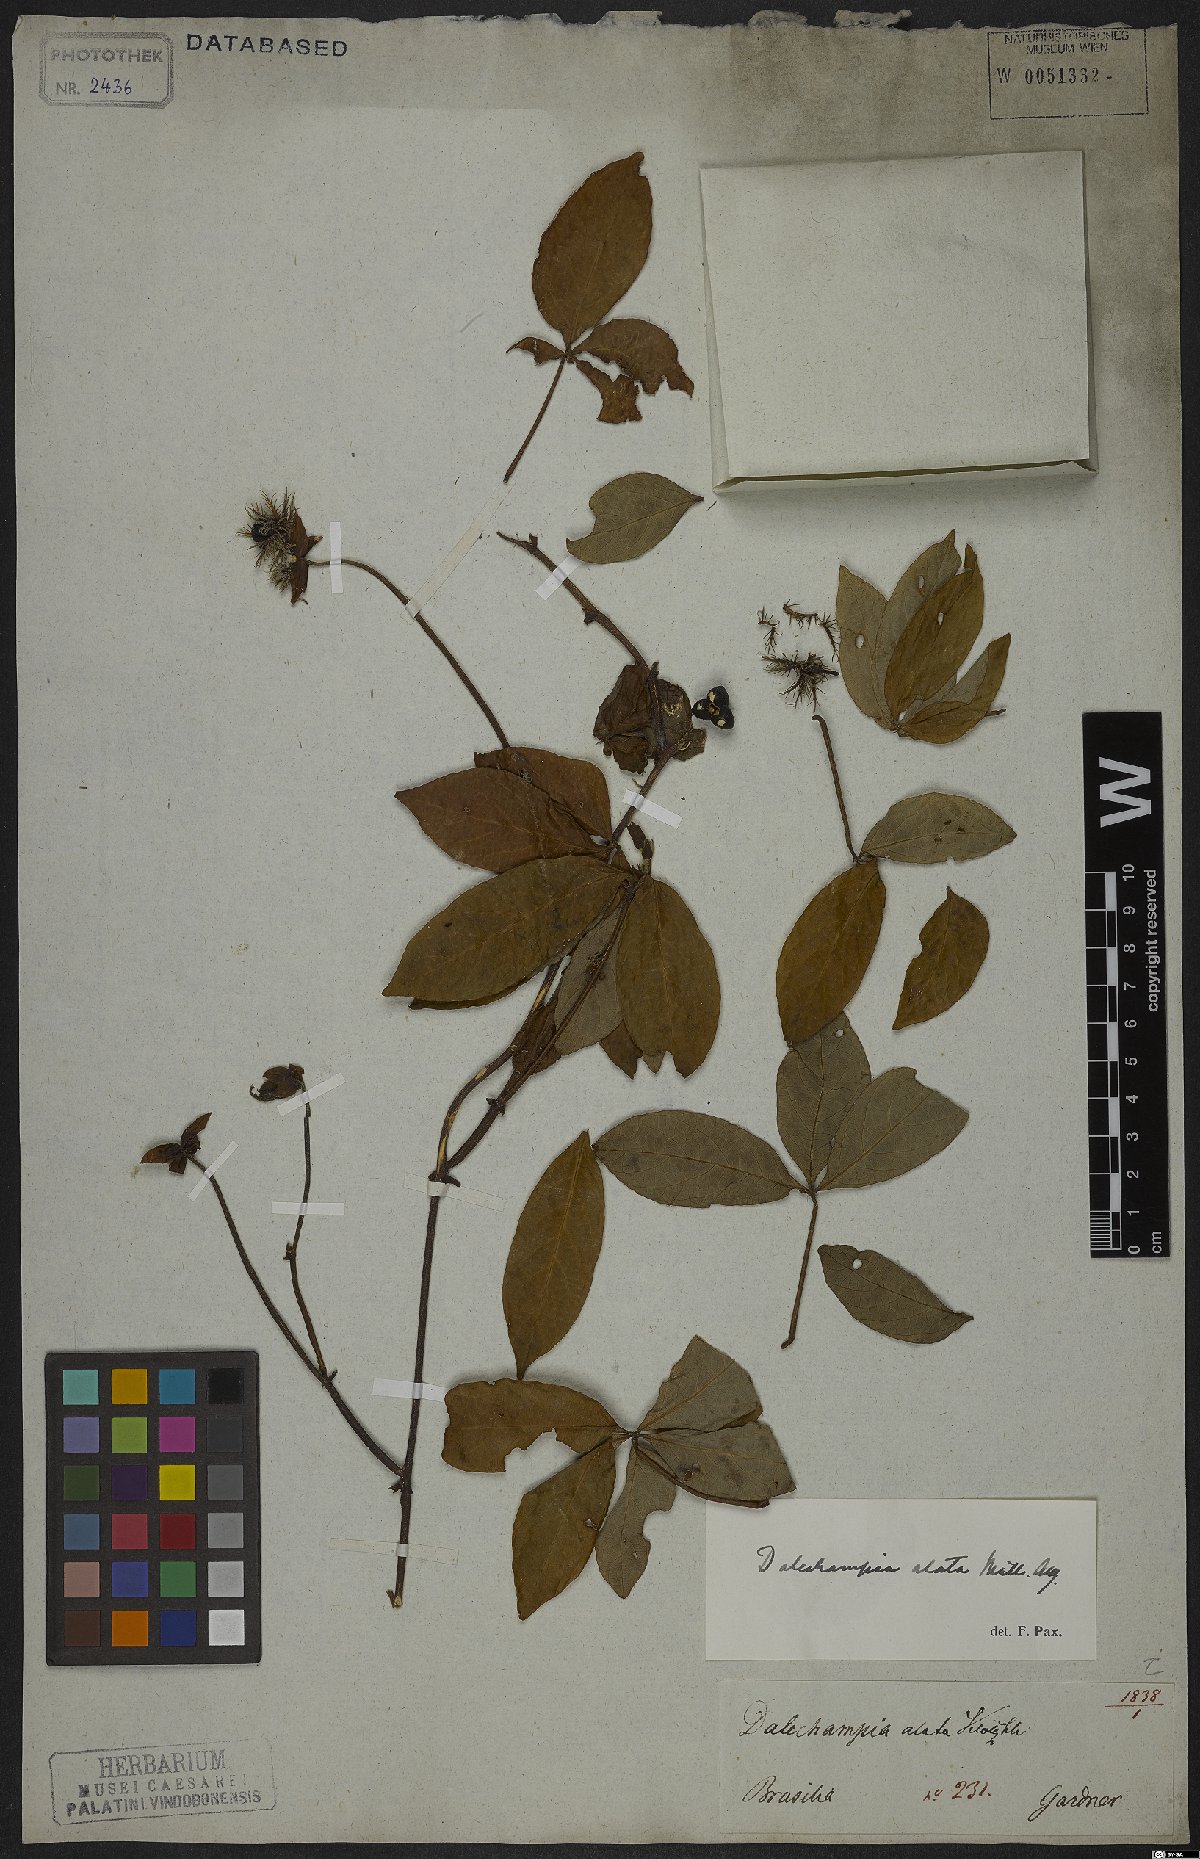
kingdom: Plantae
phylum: Tracheophyta
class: Magnoliopsida
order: Malpighiales
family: Euphorbiaceae
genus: Dalechampia
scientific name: Dalechampia alata
